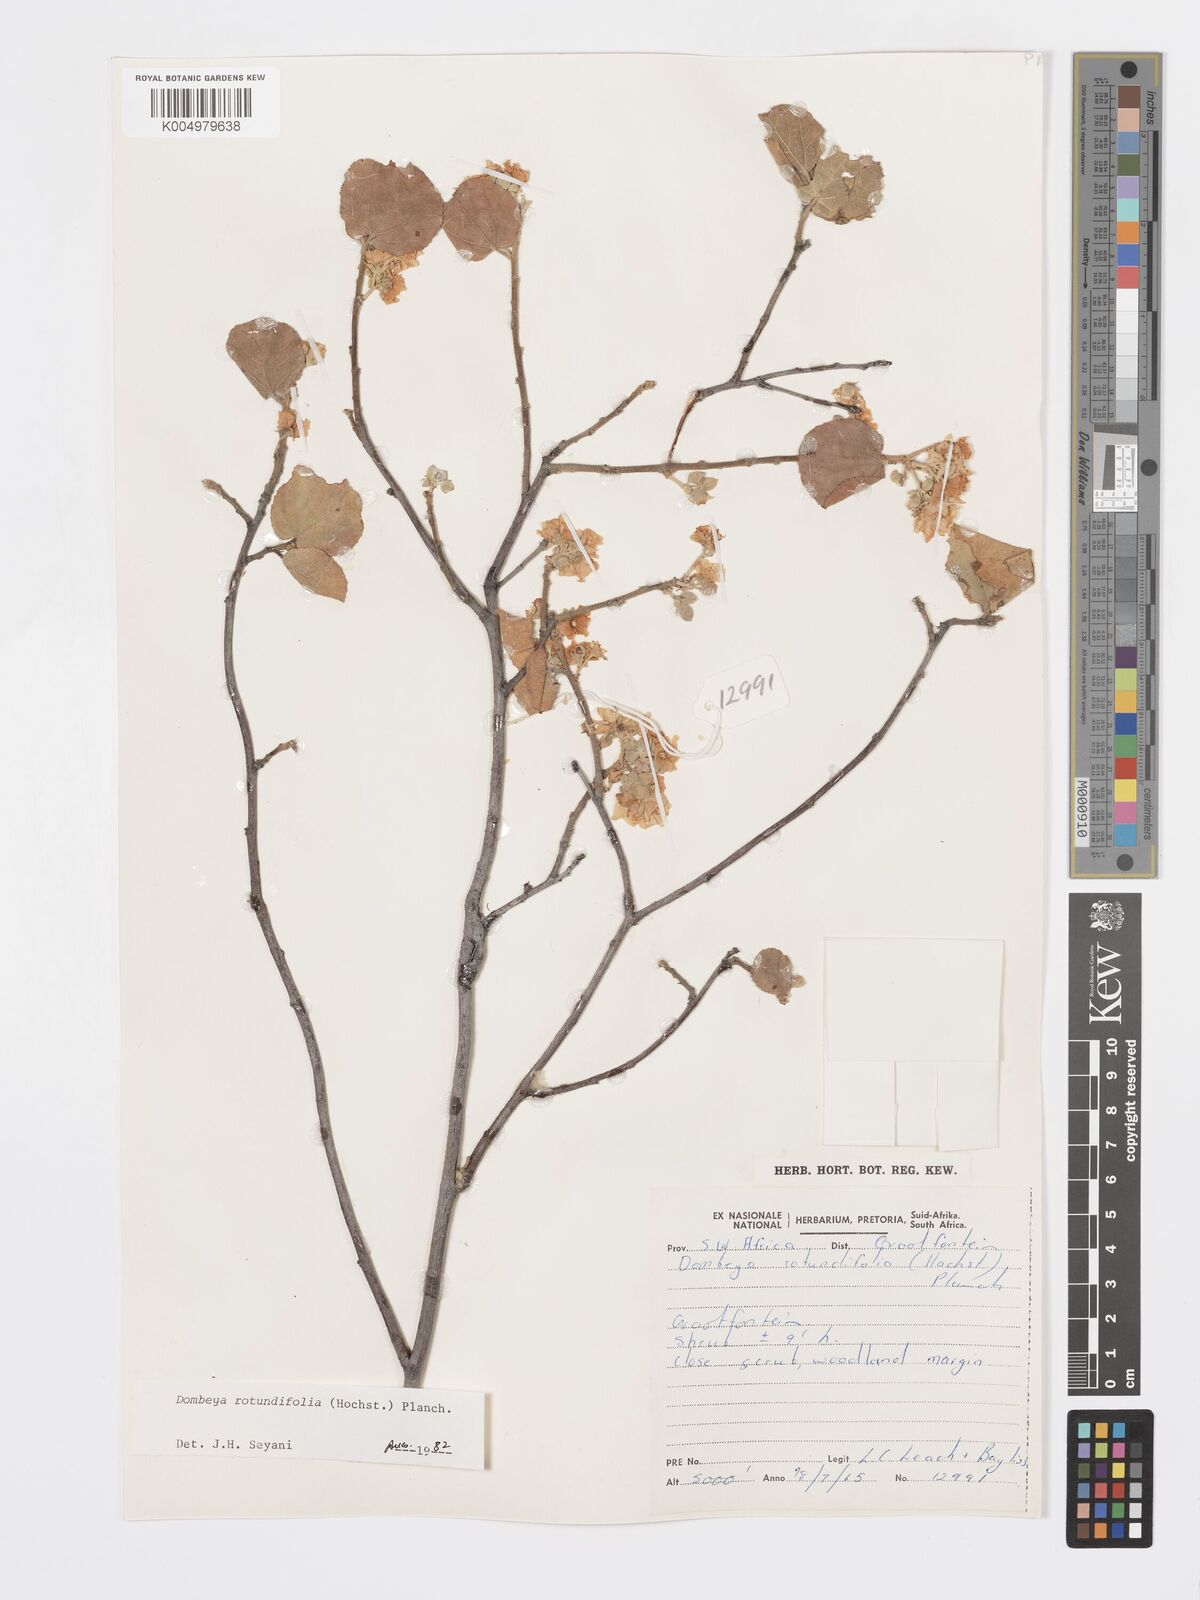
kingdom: Plantae
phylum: Tracheophyta
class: Magnoliopsida
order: Malvales
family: Malvaceae
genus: Dombeya
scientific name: Dombeya rotundifolia
